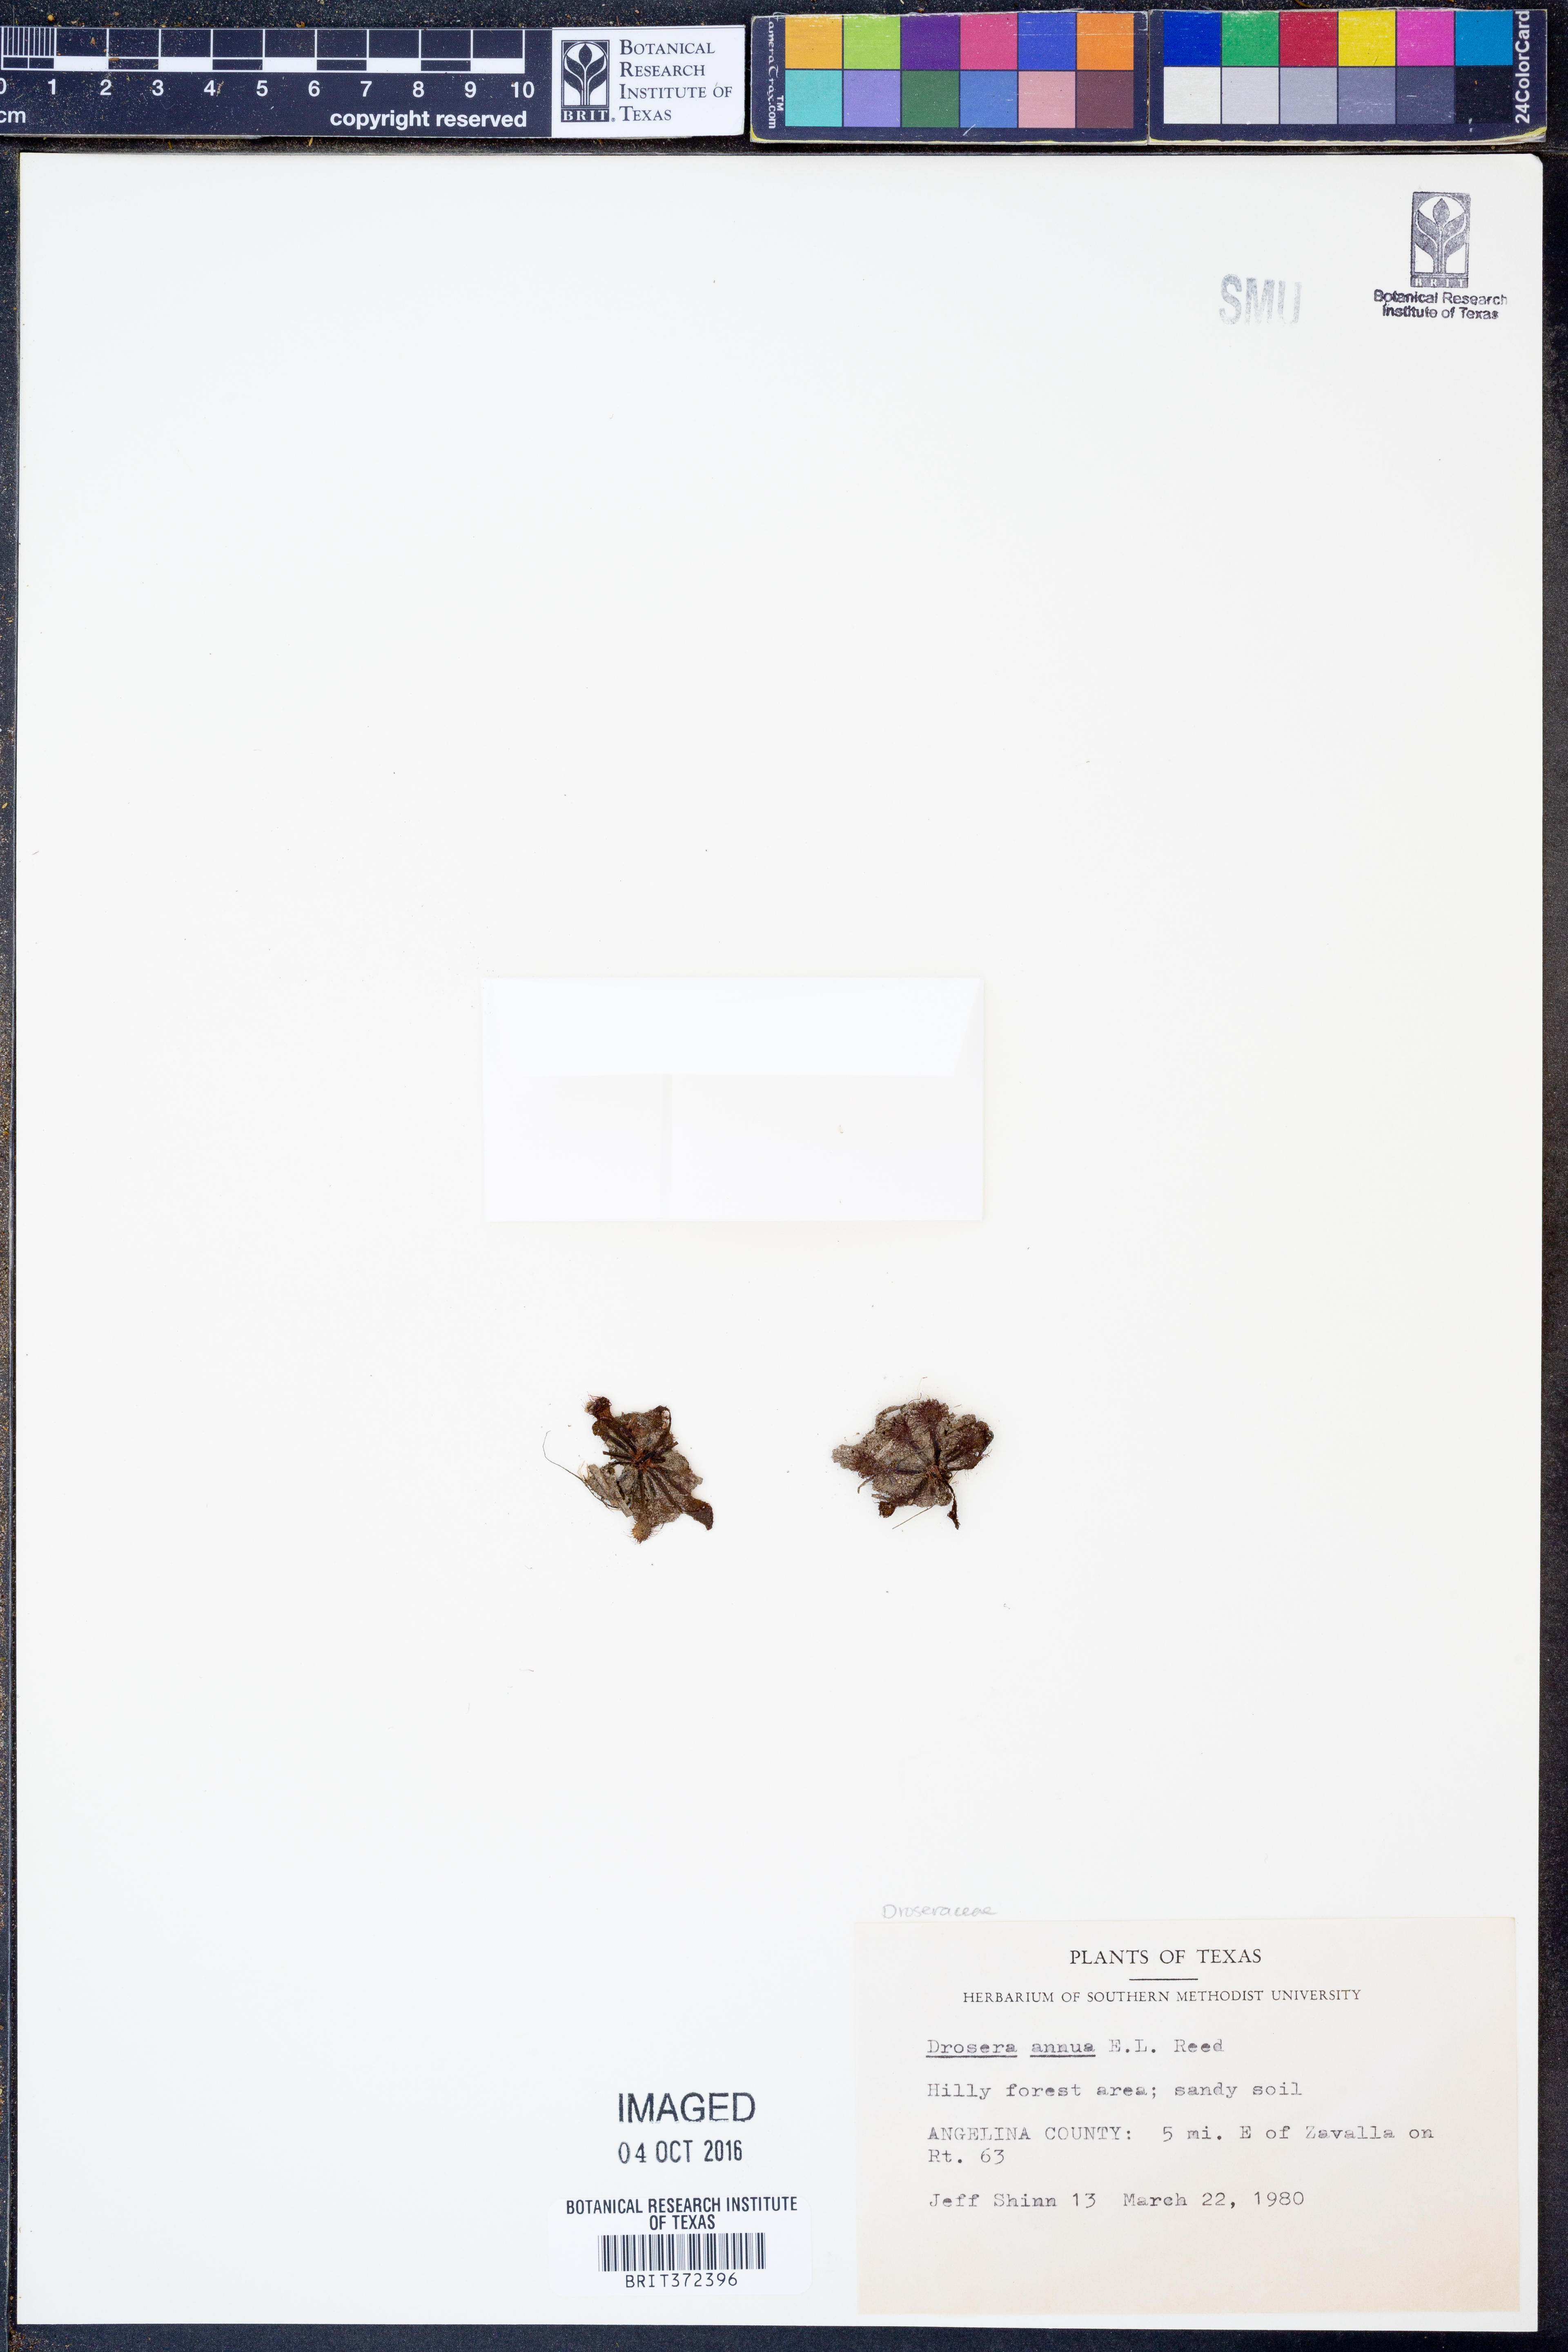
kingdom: Plantae
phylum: Tracheophyta
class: Magnoliopsida
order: Caryophyllales
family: Droseraceae
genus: Drosera
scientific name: Drosera brevifolia
